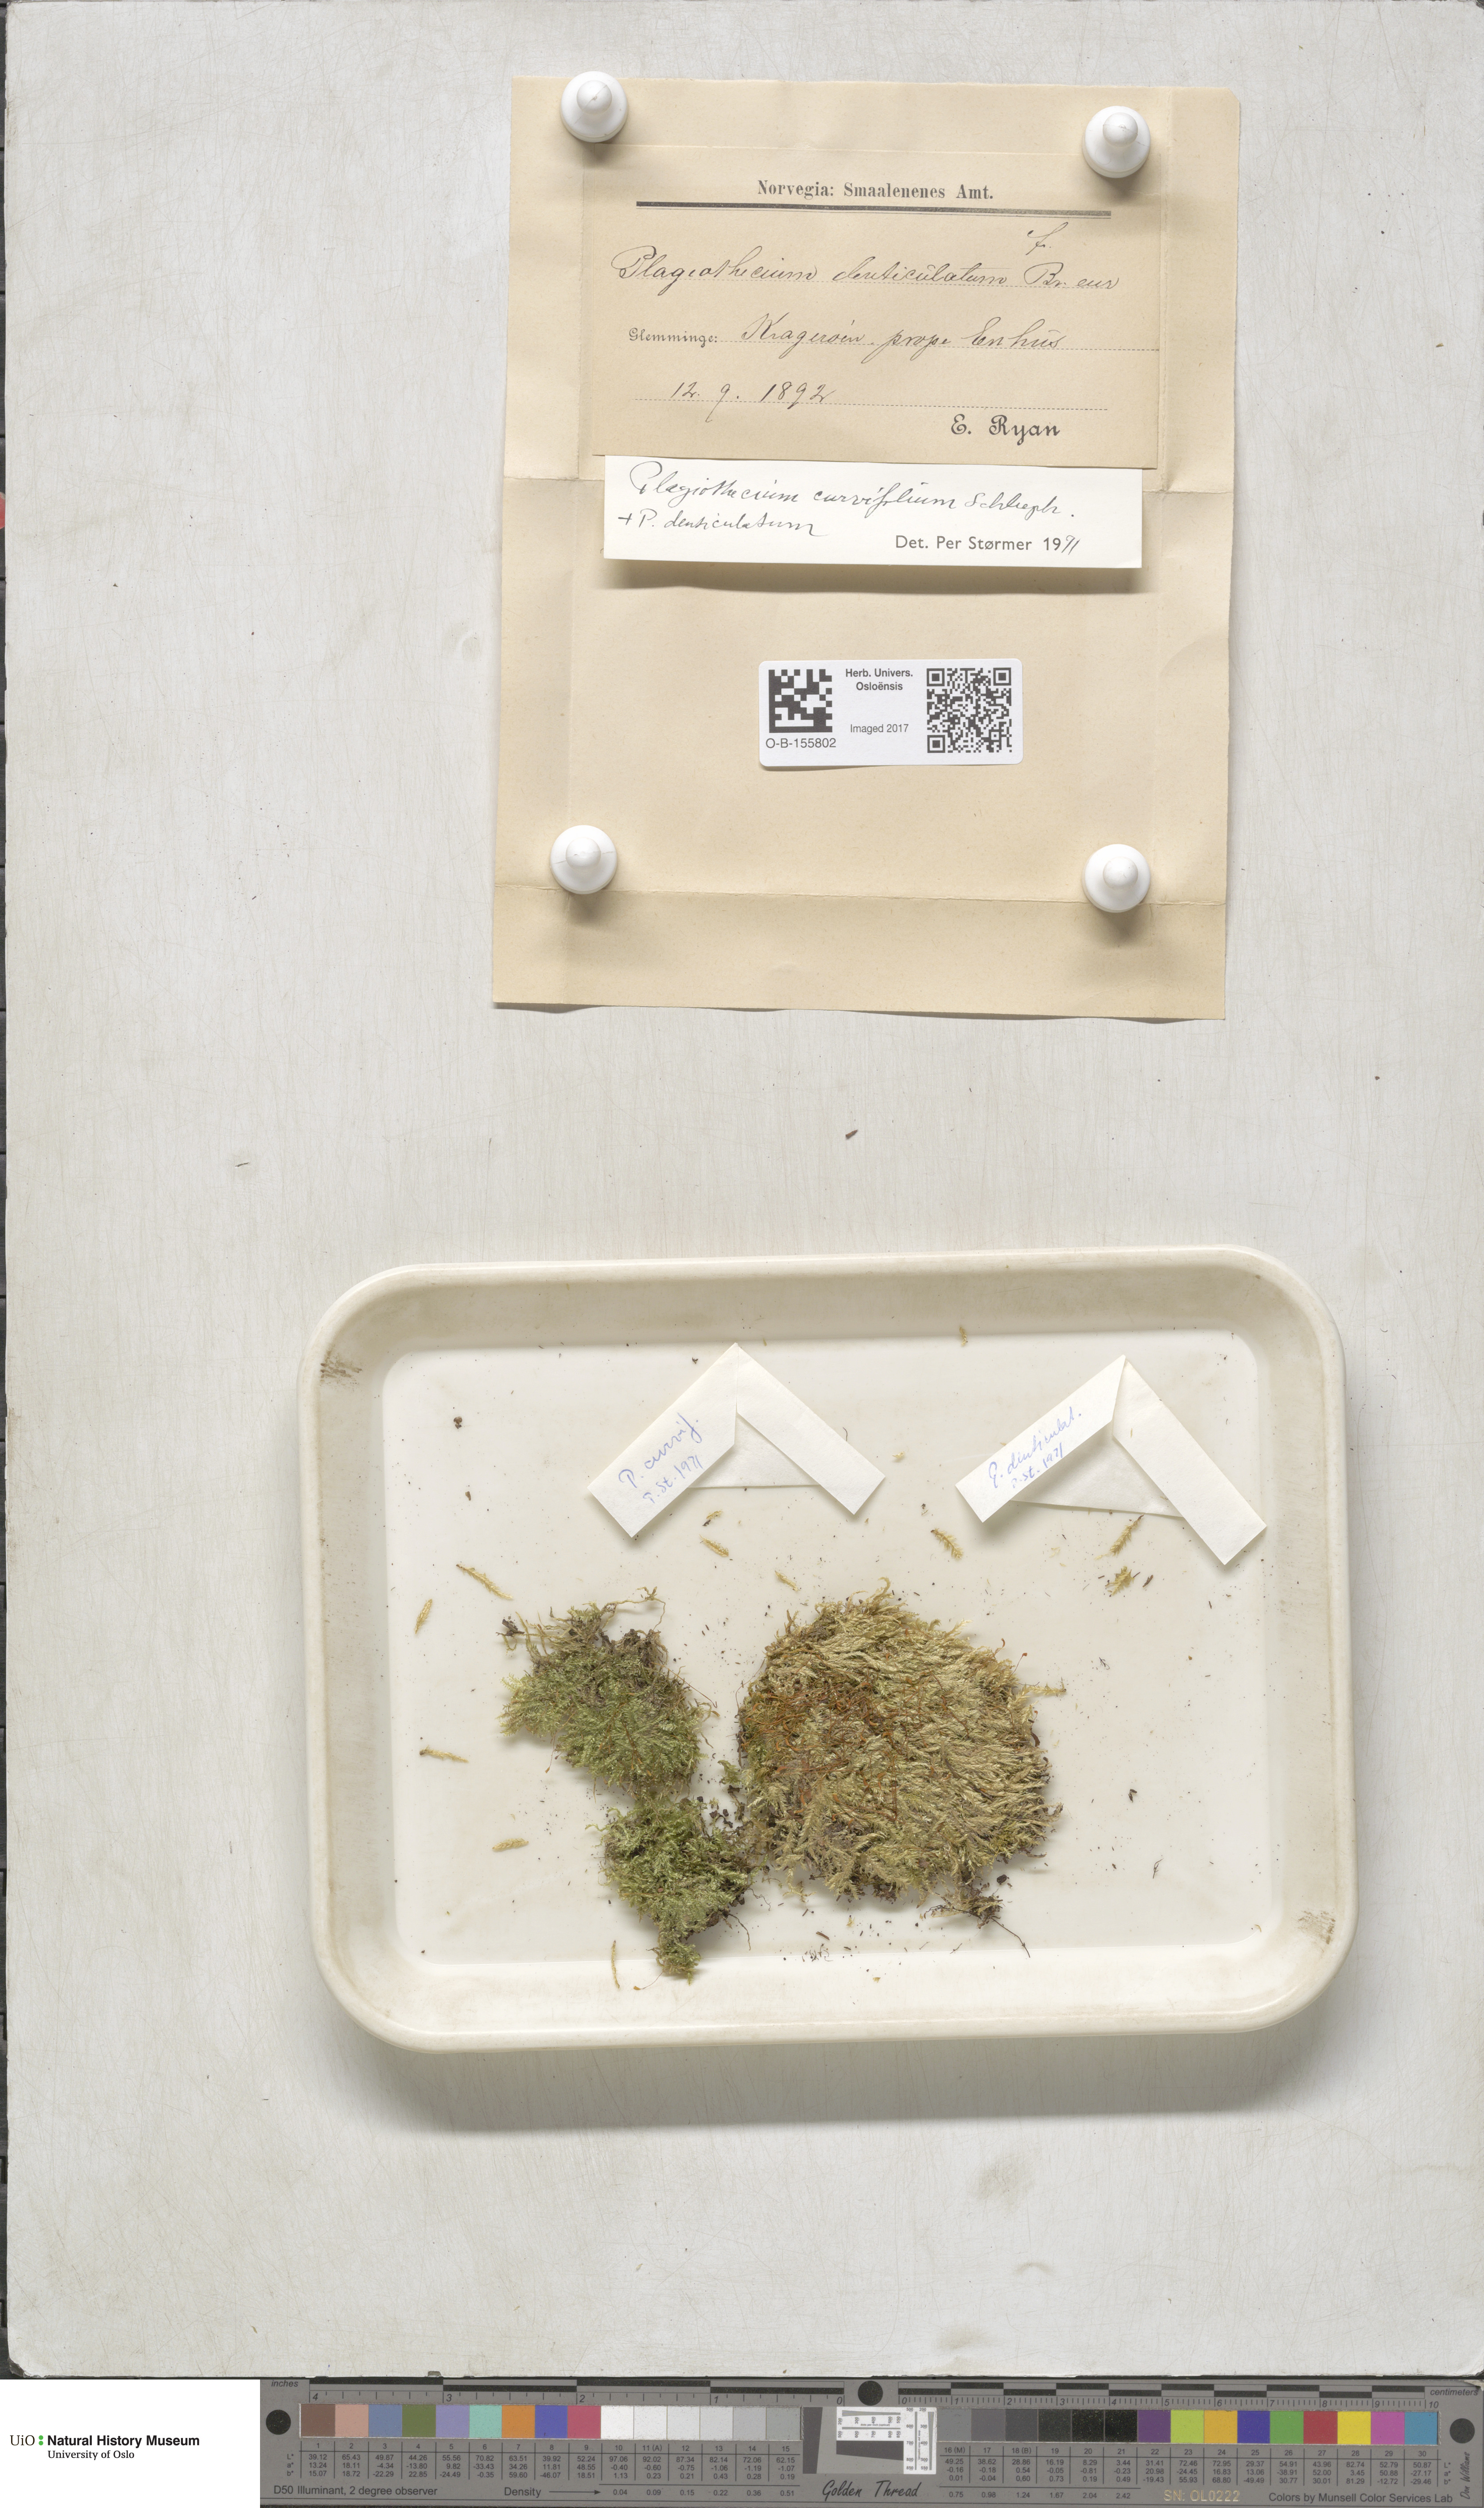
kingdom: Plantae
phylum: Bryophyta
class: Bryopsida
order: Hypnales
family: Plagiotheciaceae
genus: Plagiothecium
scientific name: Plagiothecium curvifolium
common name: Curved silk-moss
